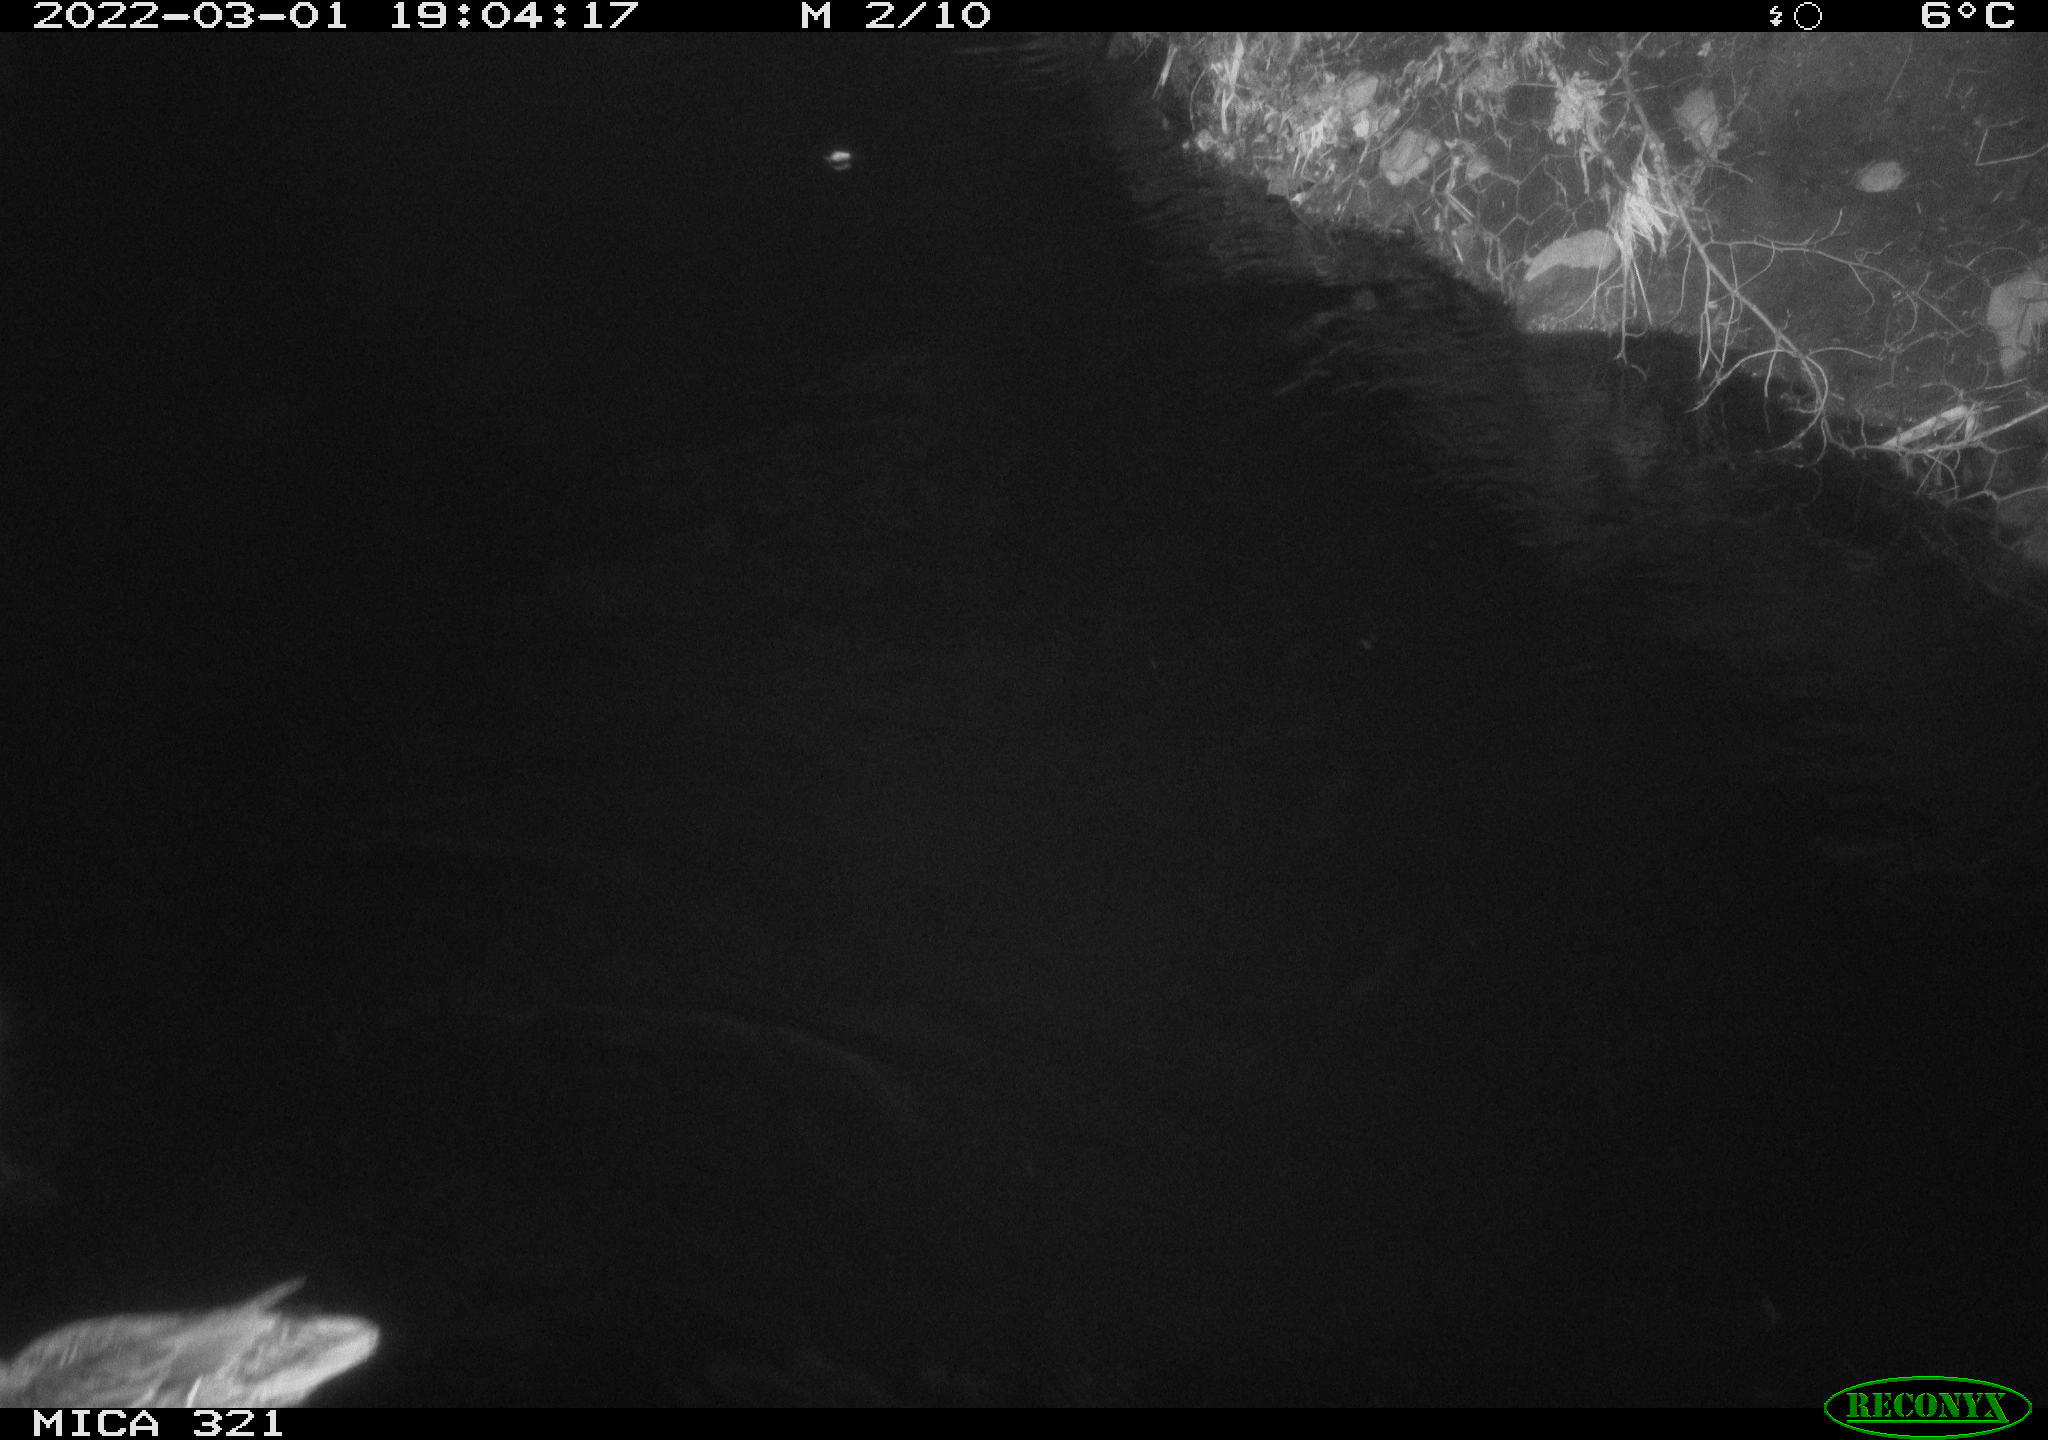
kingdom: Animalia
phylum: Chordata
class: Aves
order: Anseriformes
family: Anatidae
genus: Anas
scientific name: Anas platyrhynchos
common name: Mallard
